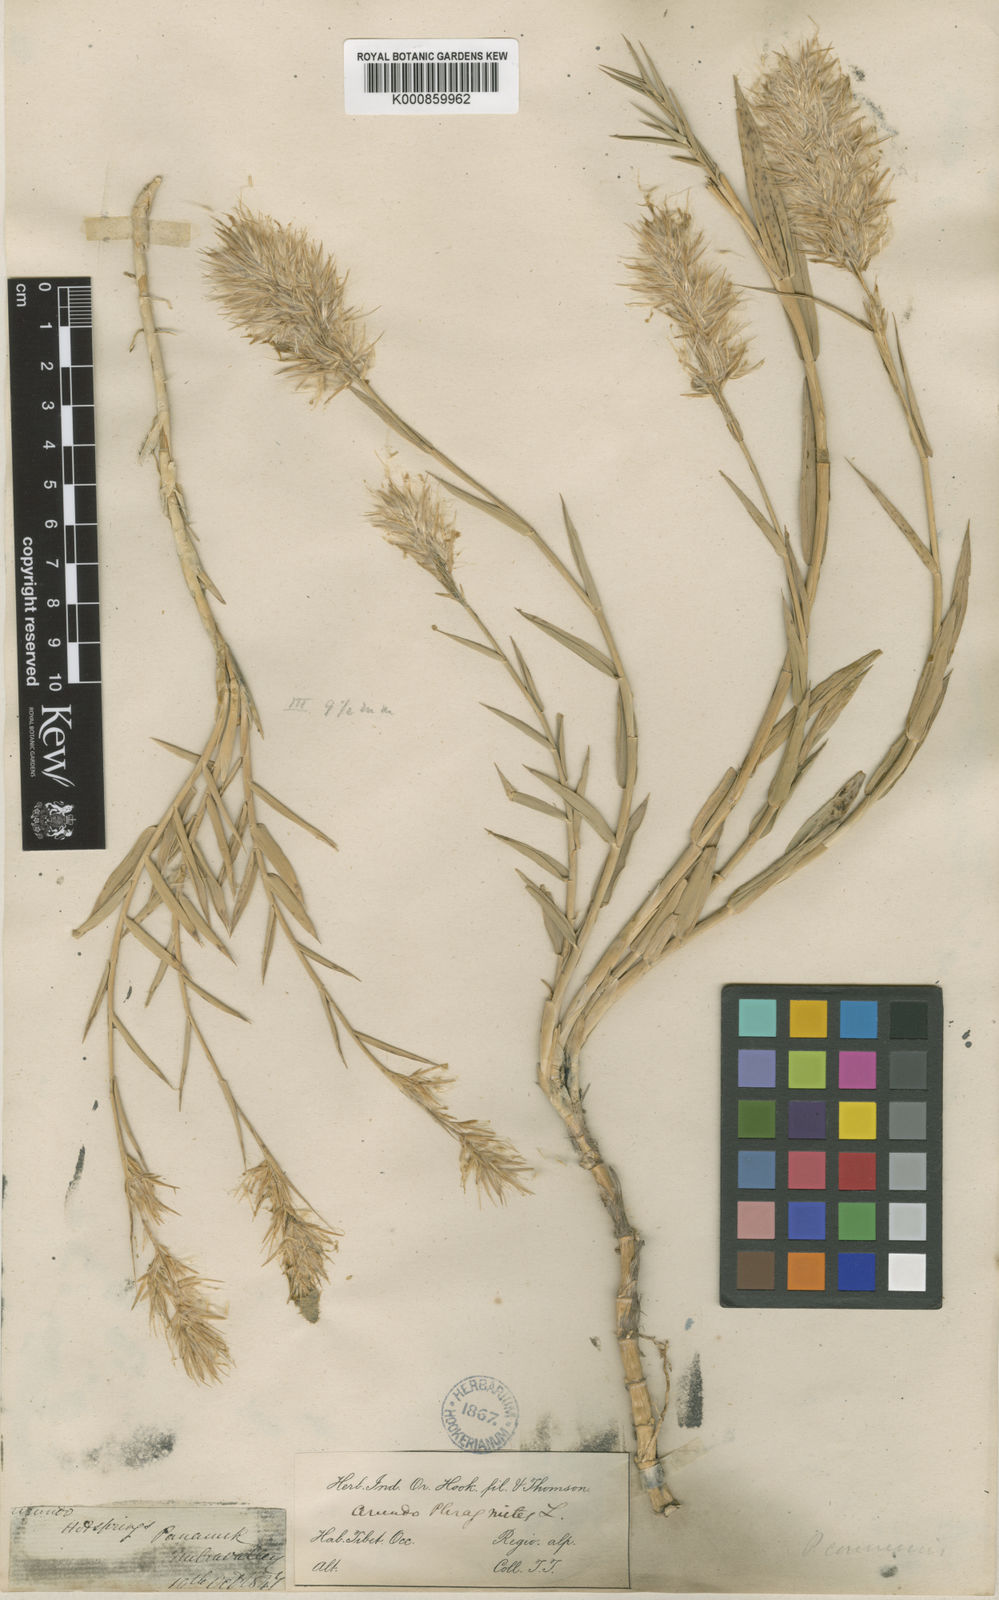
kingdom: Plantae
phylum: Tracheophyta
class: Liliopsida
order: Poales
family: Poaceae
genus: Phragmites
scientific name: Phragmites australis
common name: Common reed
